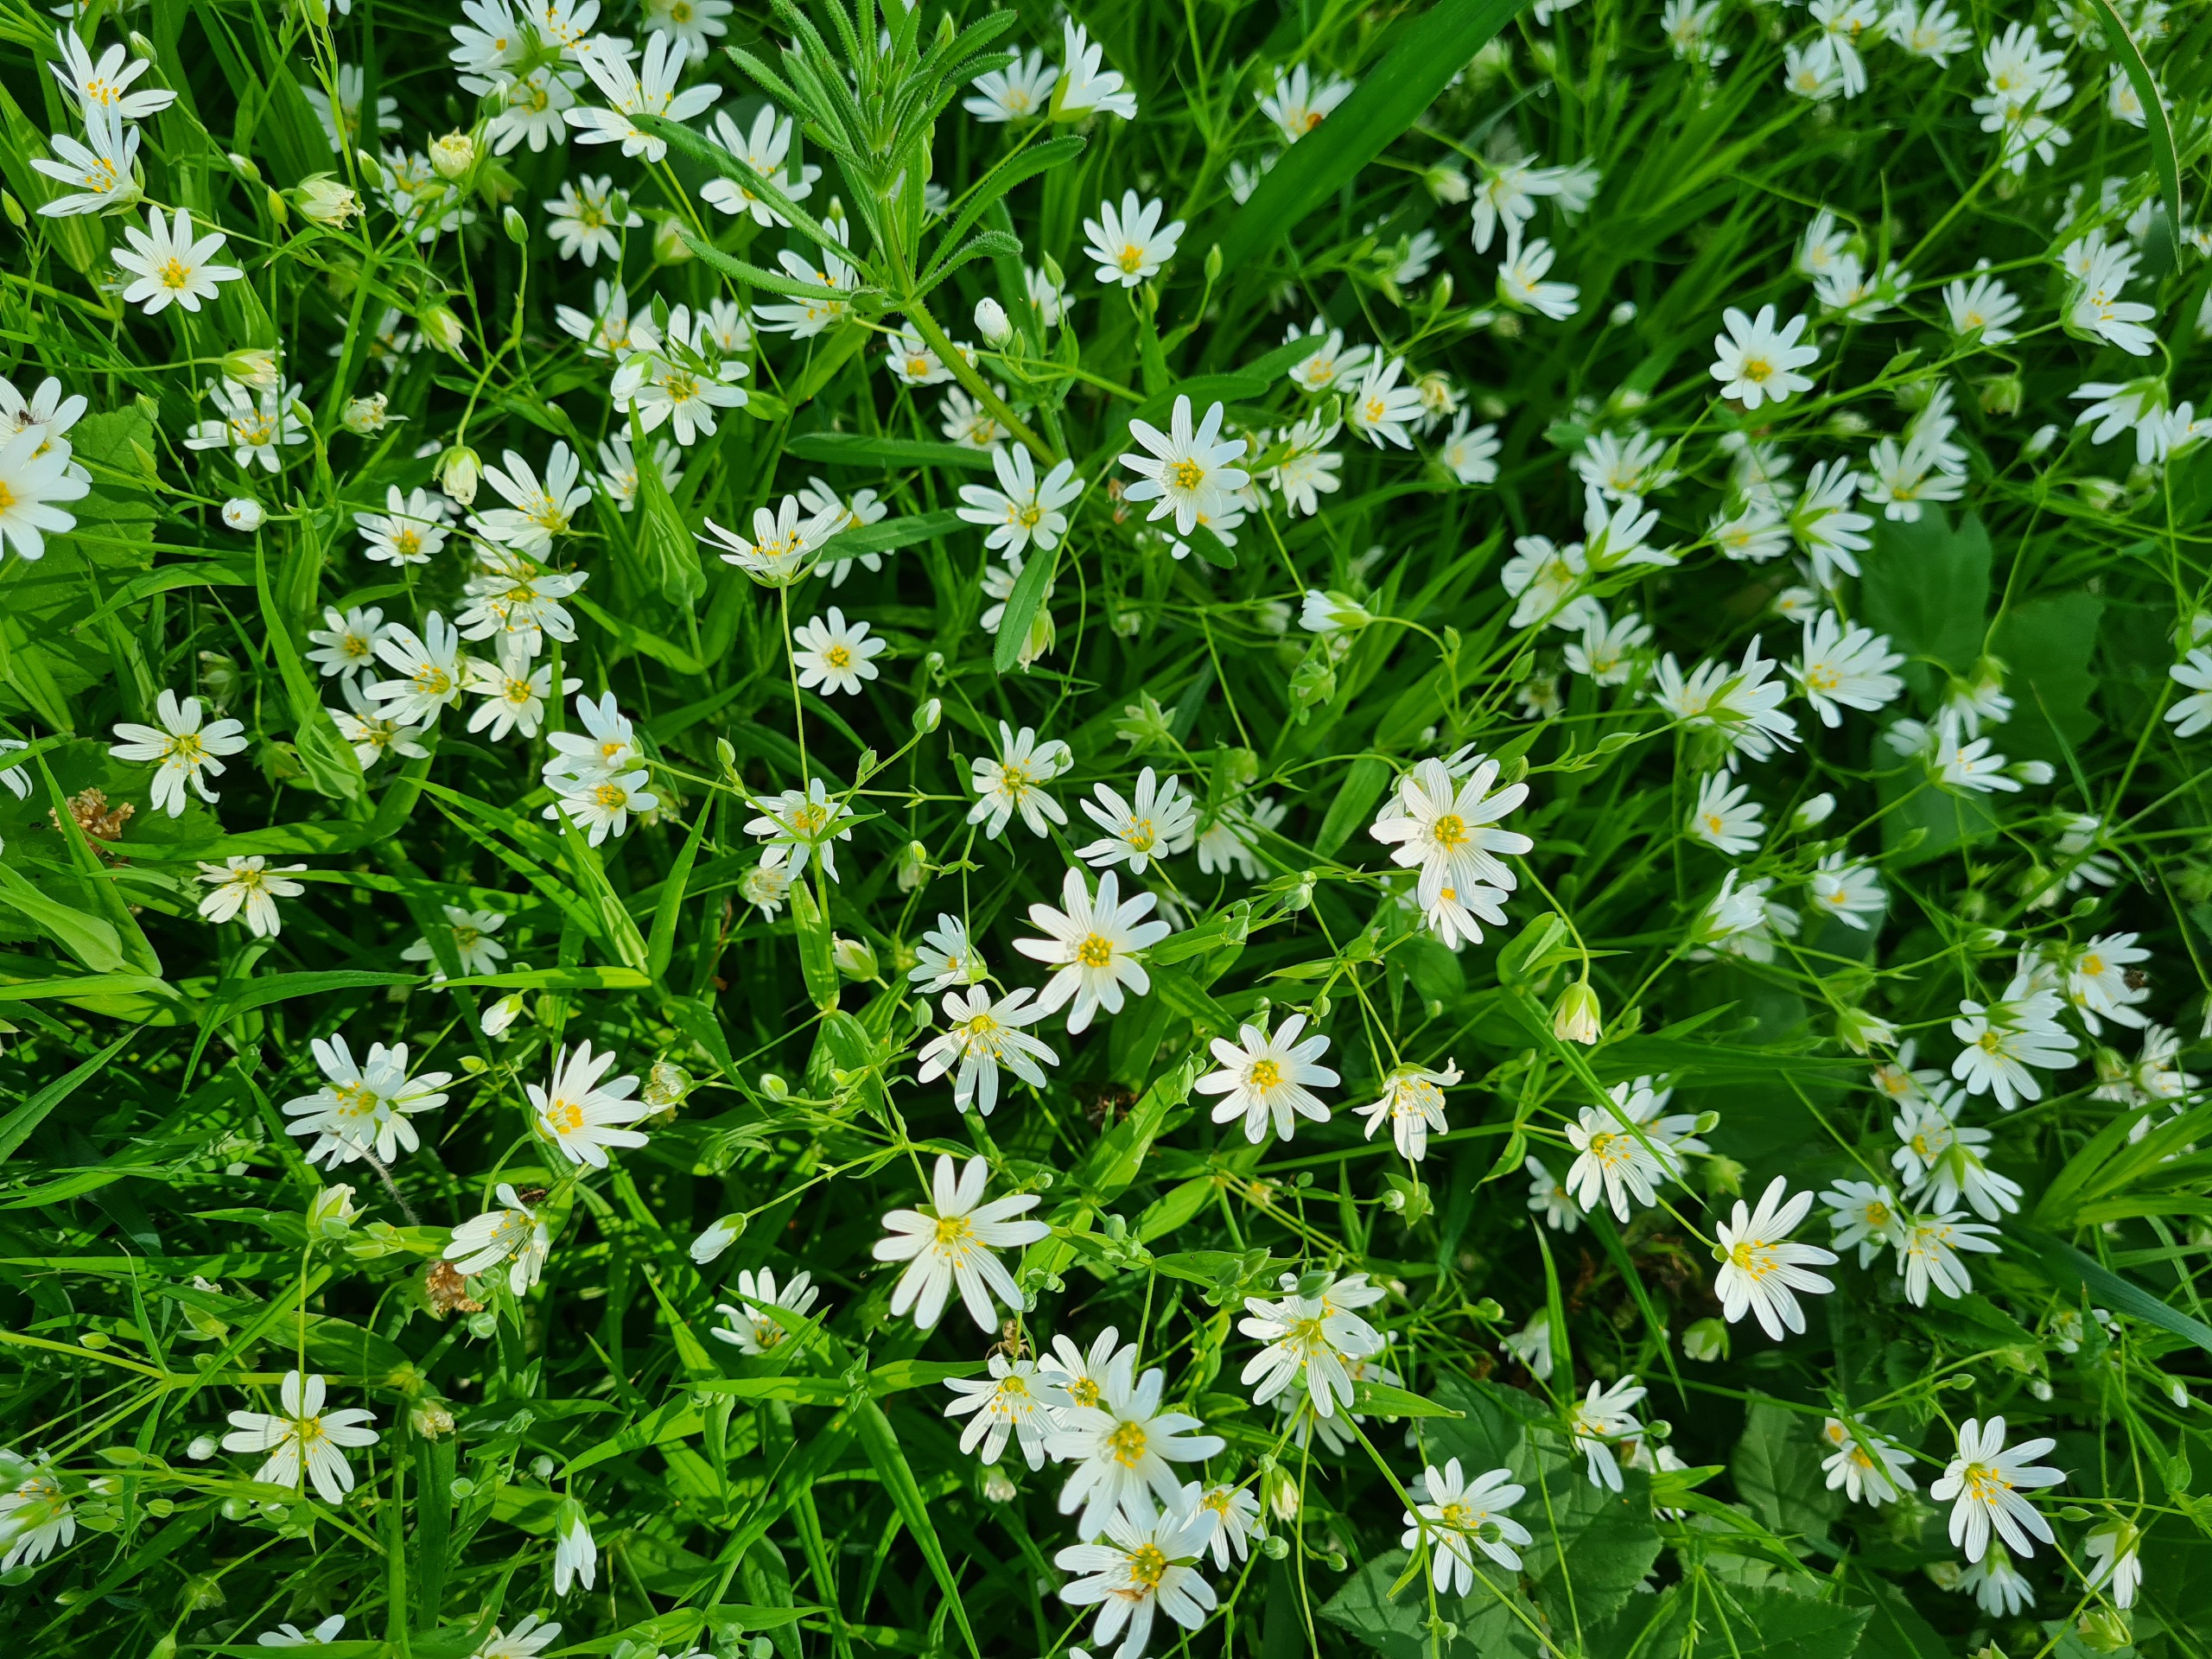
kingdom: Plantae
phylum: Tracheophyta
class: Magnoliopsida
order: Caryophyllales
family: Caryophyllaceae
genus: Rabelera
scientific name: Rabelera holostea
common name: Stor fladstjerne
